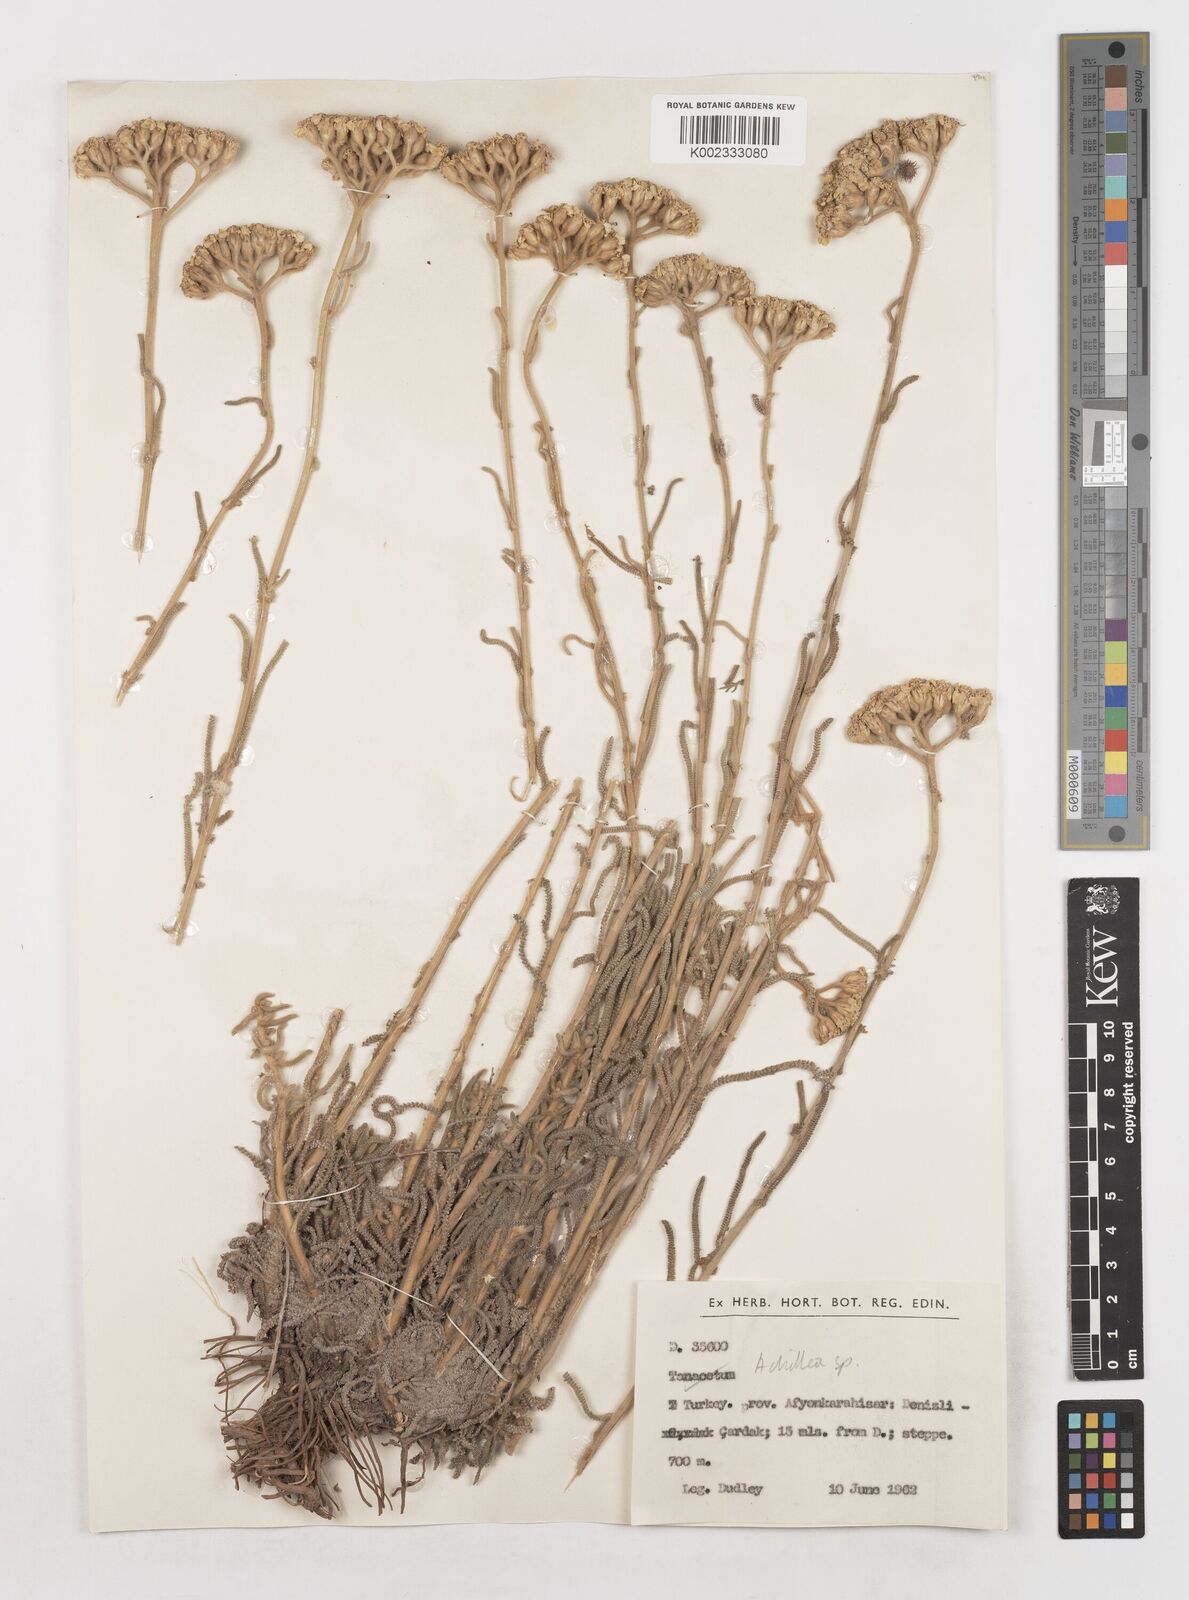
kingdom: Plantae
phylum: Tracheophyta
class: Magnoliopsida
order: Asterales
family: Asteraceae
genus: Achillea
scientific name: Achillea
